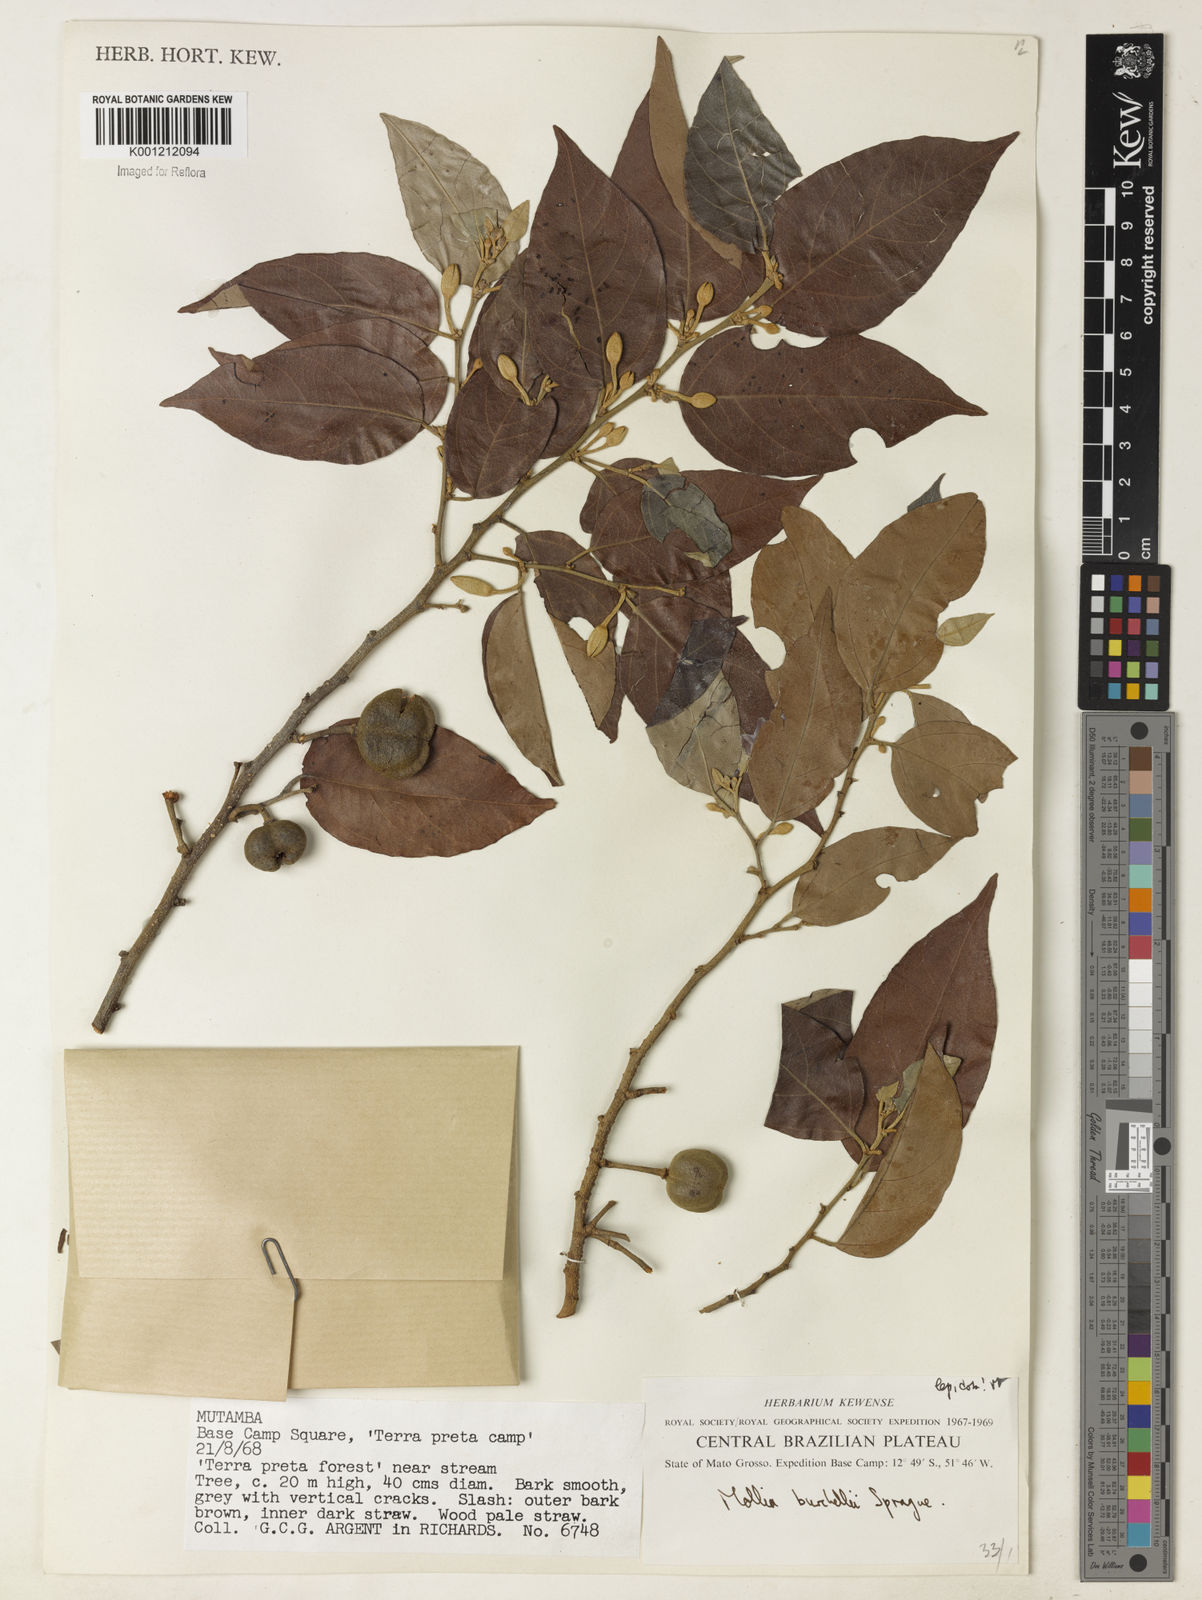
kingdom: Plantae
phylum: Tracheophyta
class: Magnoliopsida
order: Malvales
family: Malvaceae
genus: Mollia
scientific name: Mollia lepidota
